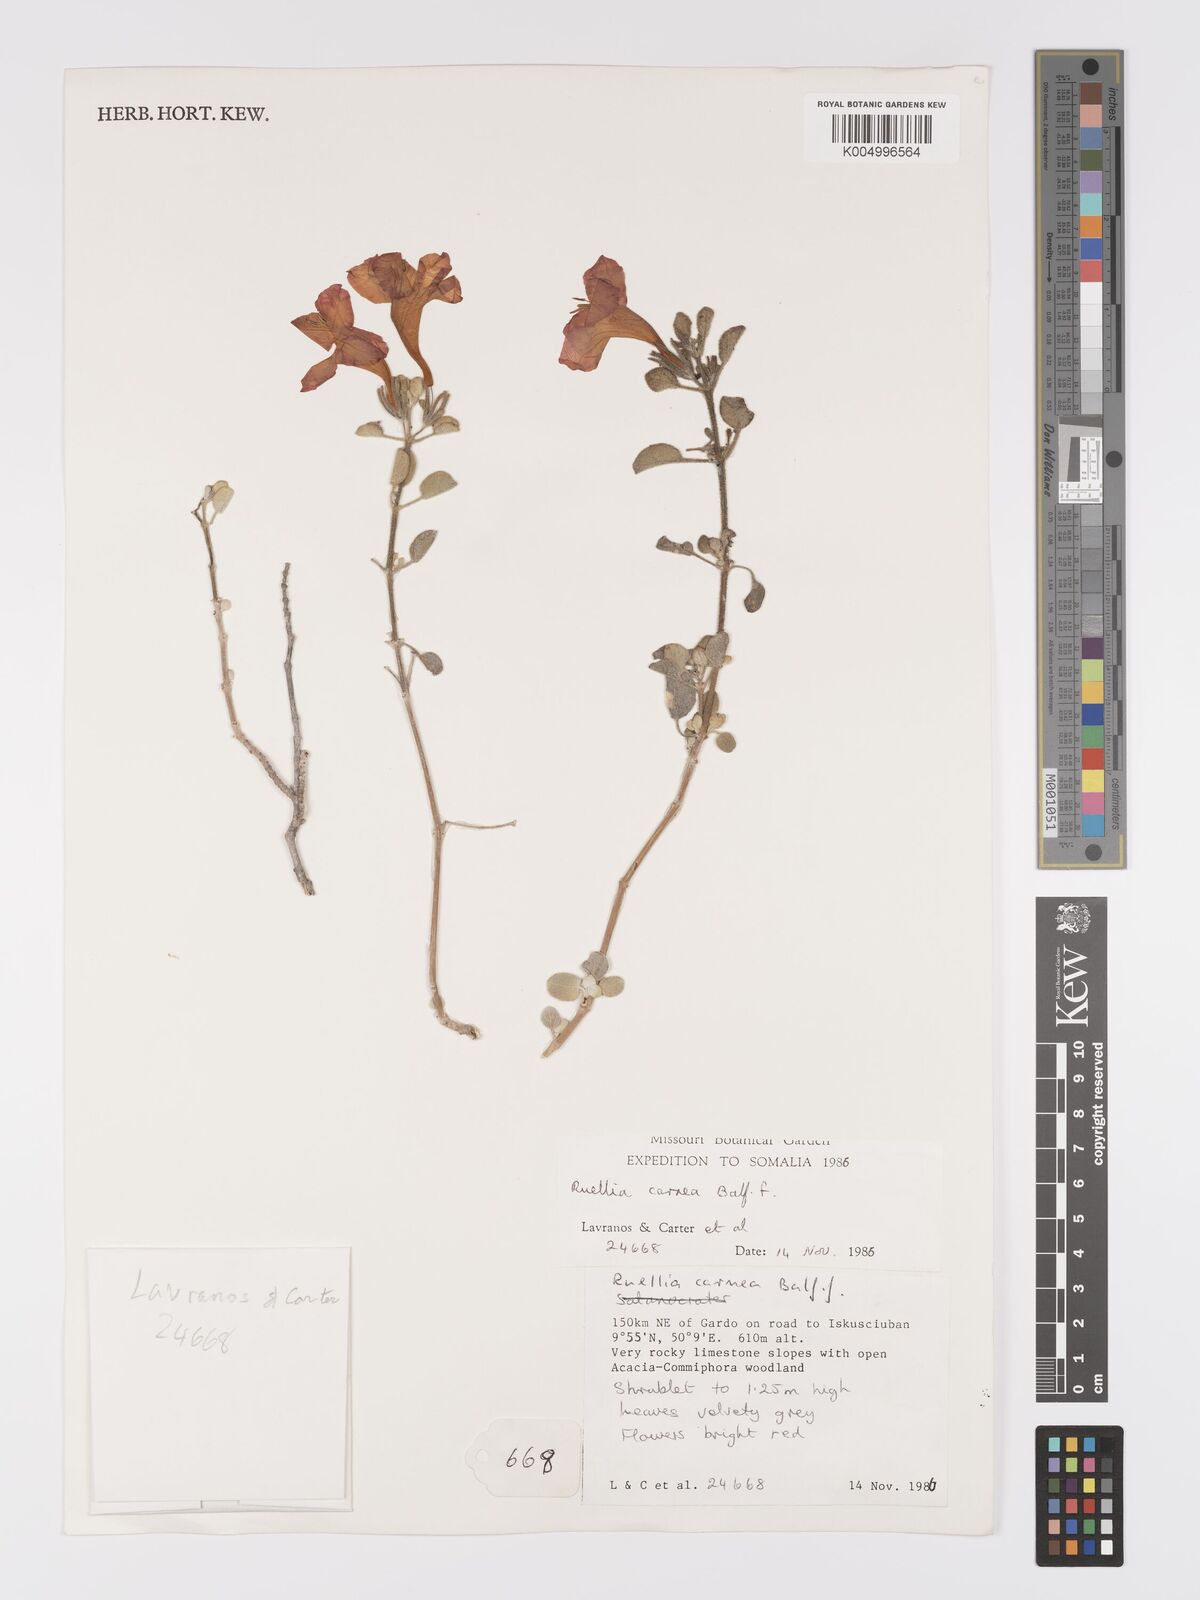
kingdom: Plantae
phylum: Tracheophyta
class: Magnoliopsida
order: Lamiales
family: Acanthaceae
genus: Ruellia
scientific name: Ruellia carnea
